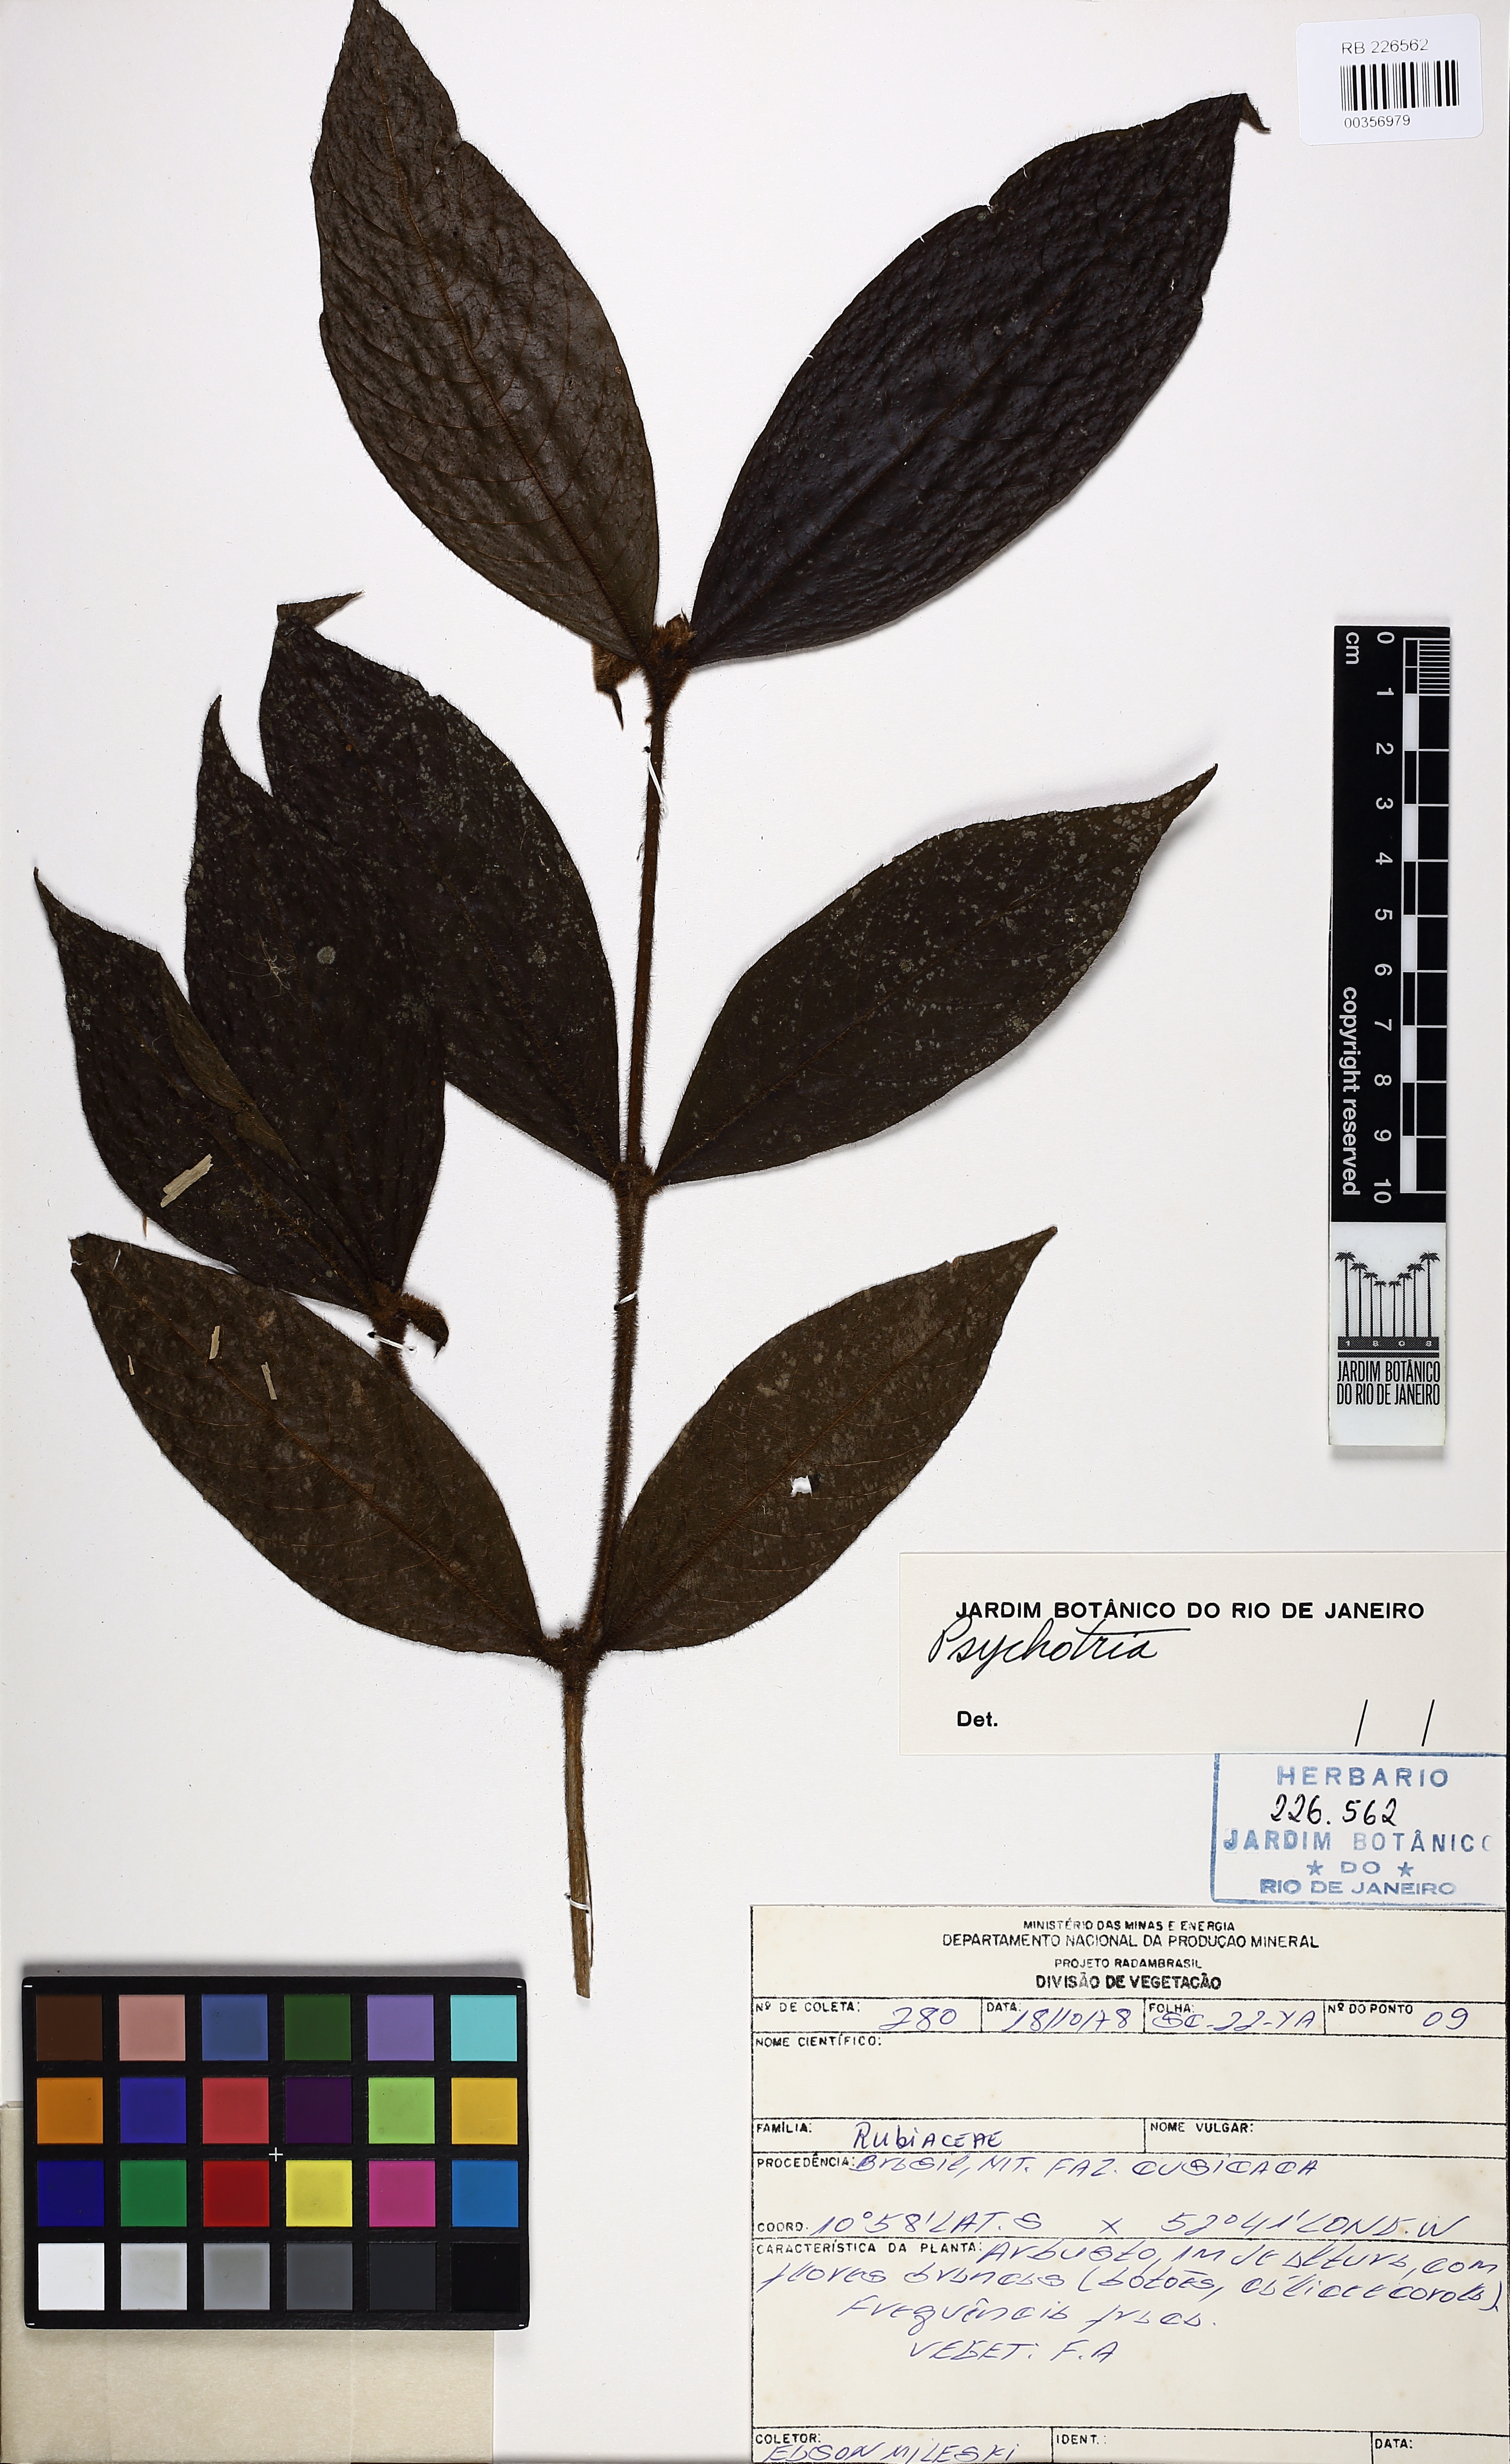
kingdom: Plantae
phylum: Tracheophyta
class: Magnoliopsida
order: Gentianales
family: Rubiaceae
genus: Psychotria
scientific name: Psychotria
